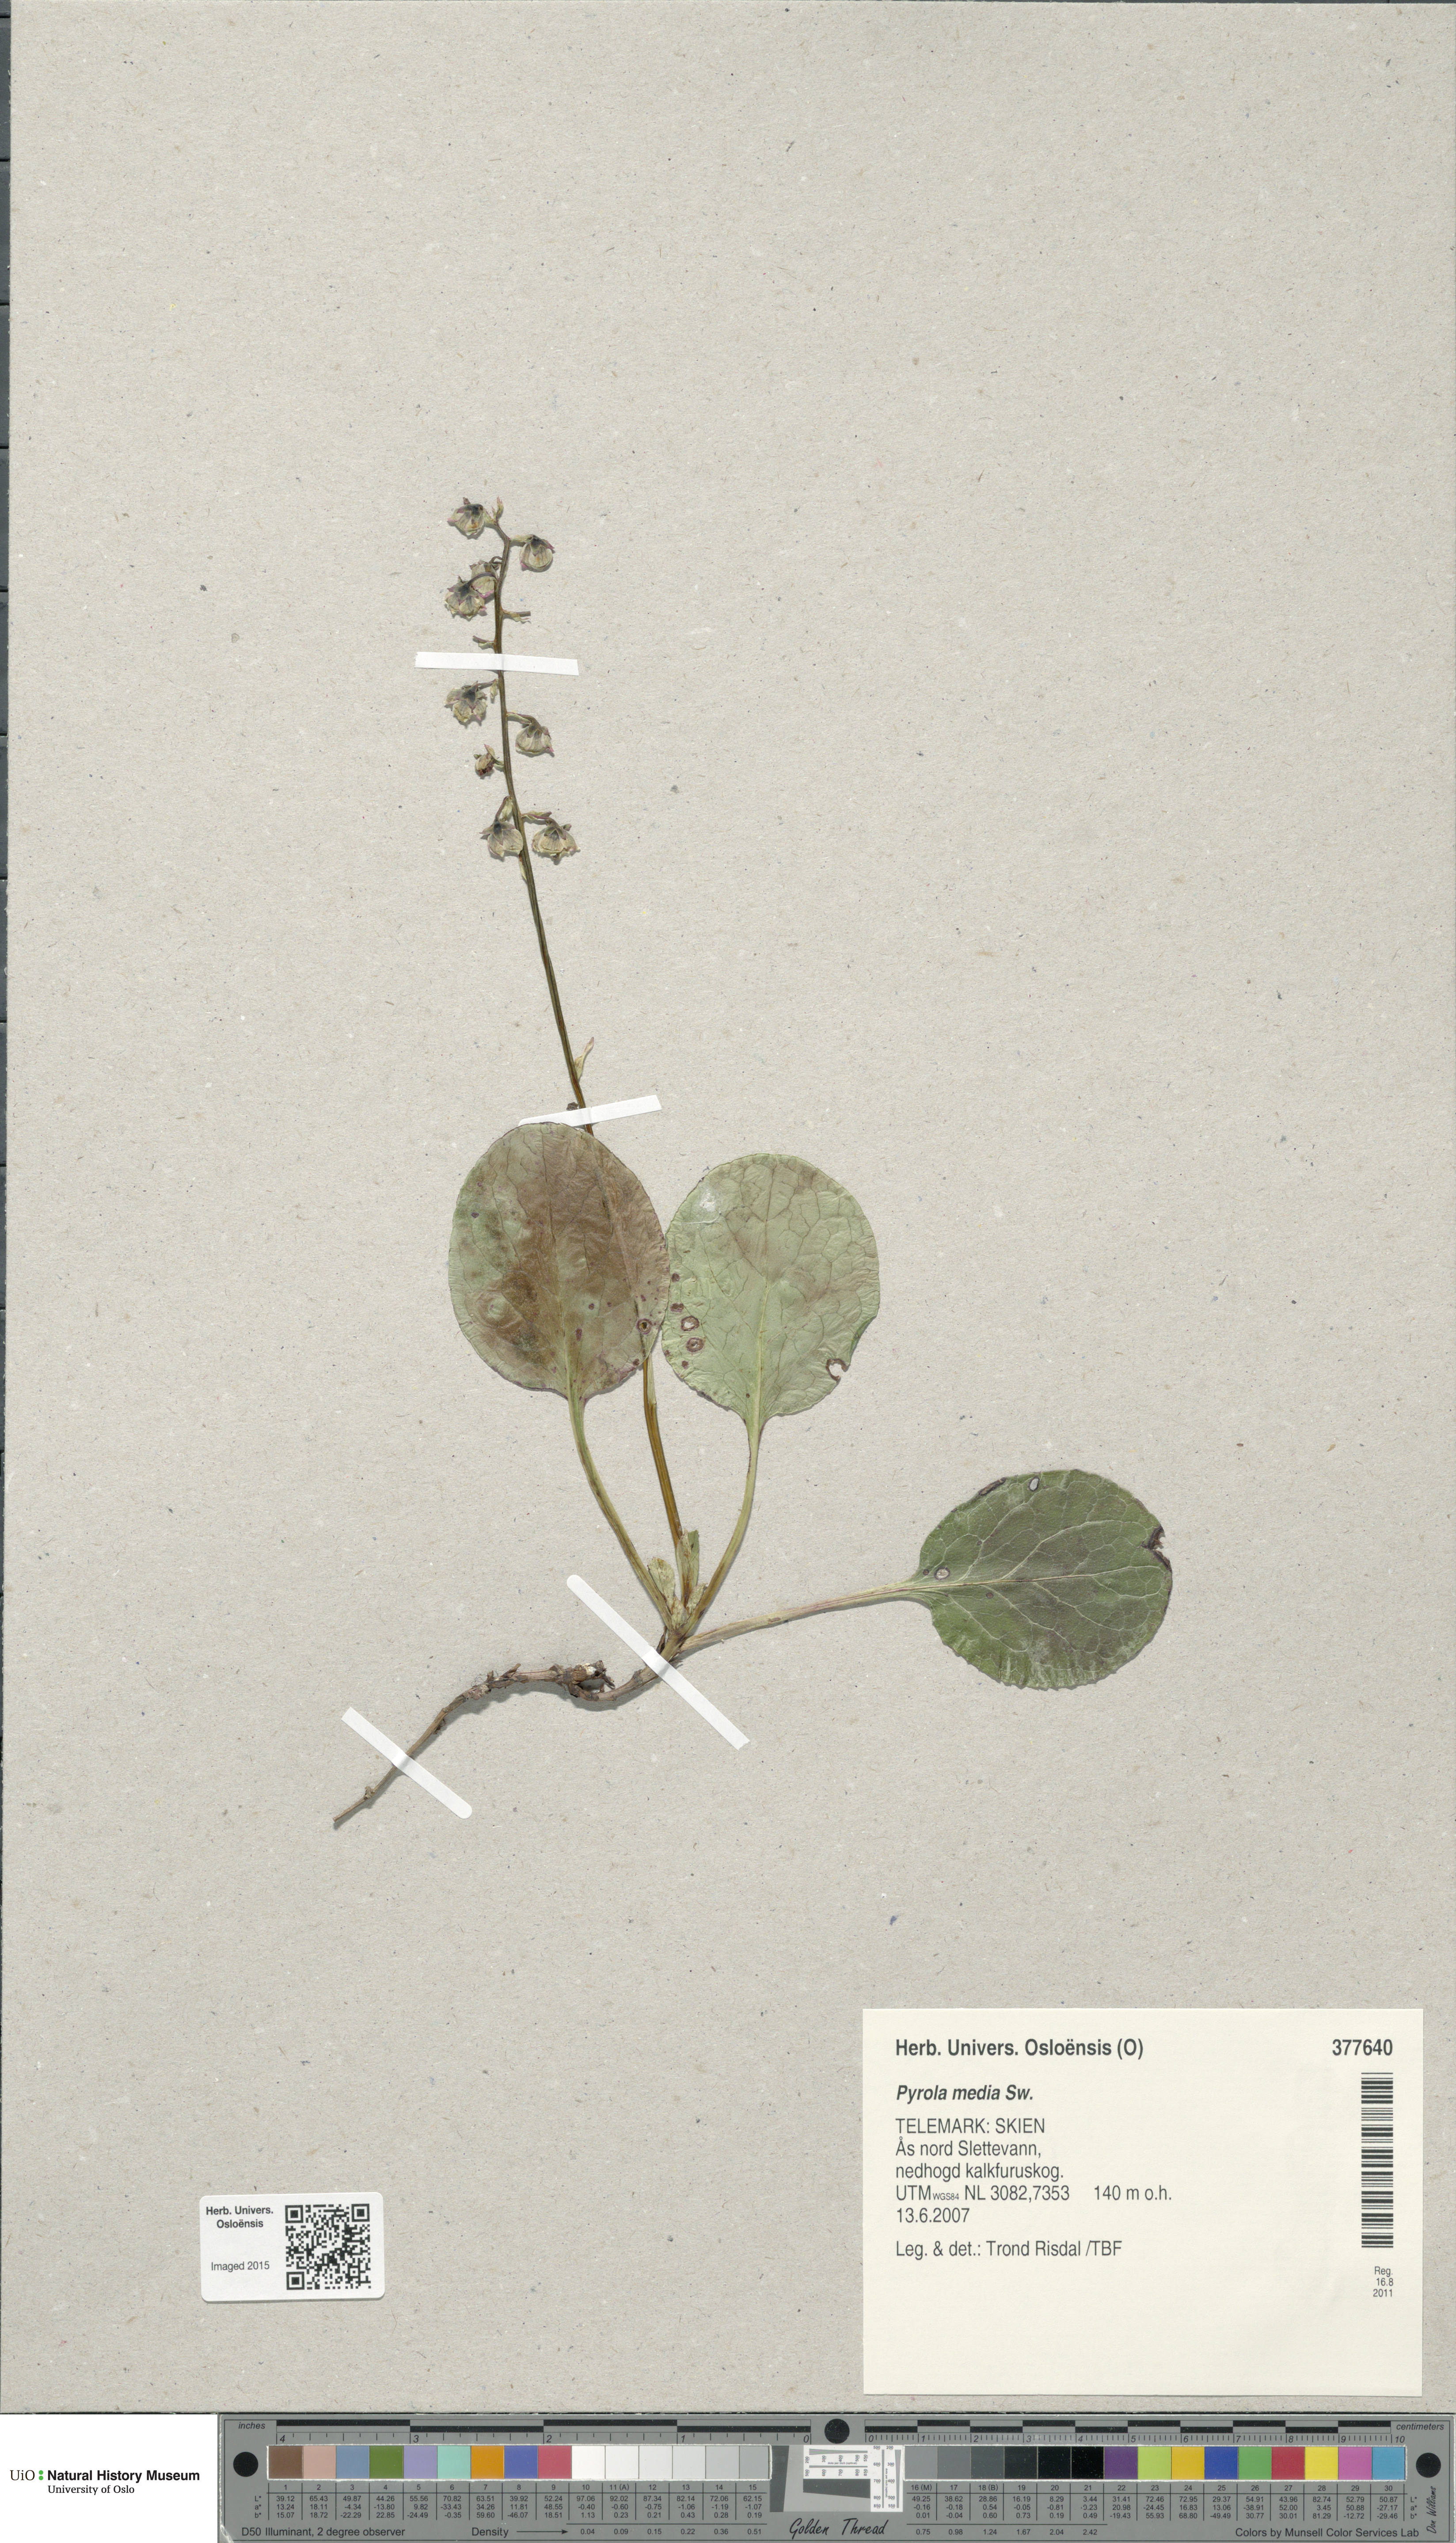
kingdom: Plantae
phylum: Tracheophyta
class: Magnoliopsida
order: Ericales
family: Ericaceae
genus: Pyrola
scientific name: Pyrola media
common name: Intermediate wintergreen
